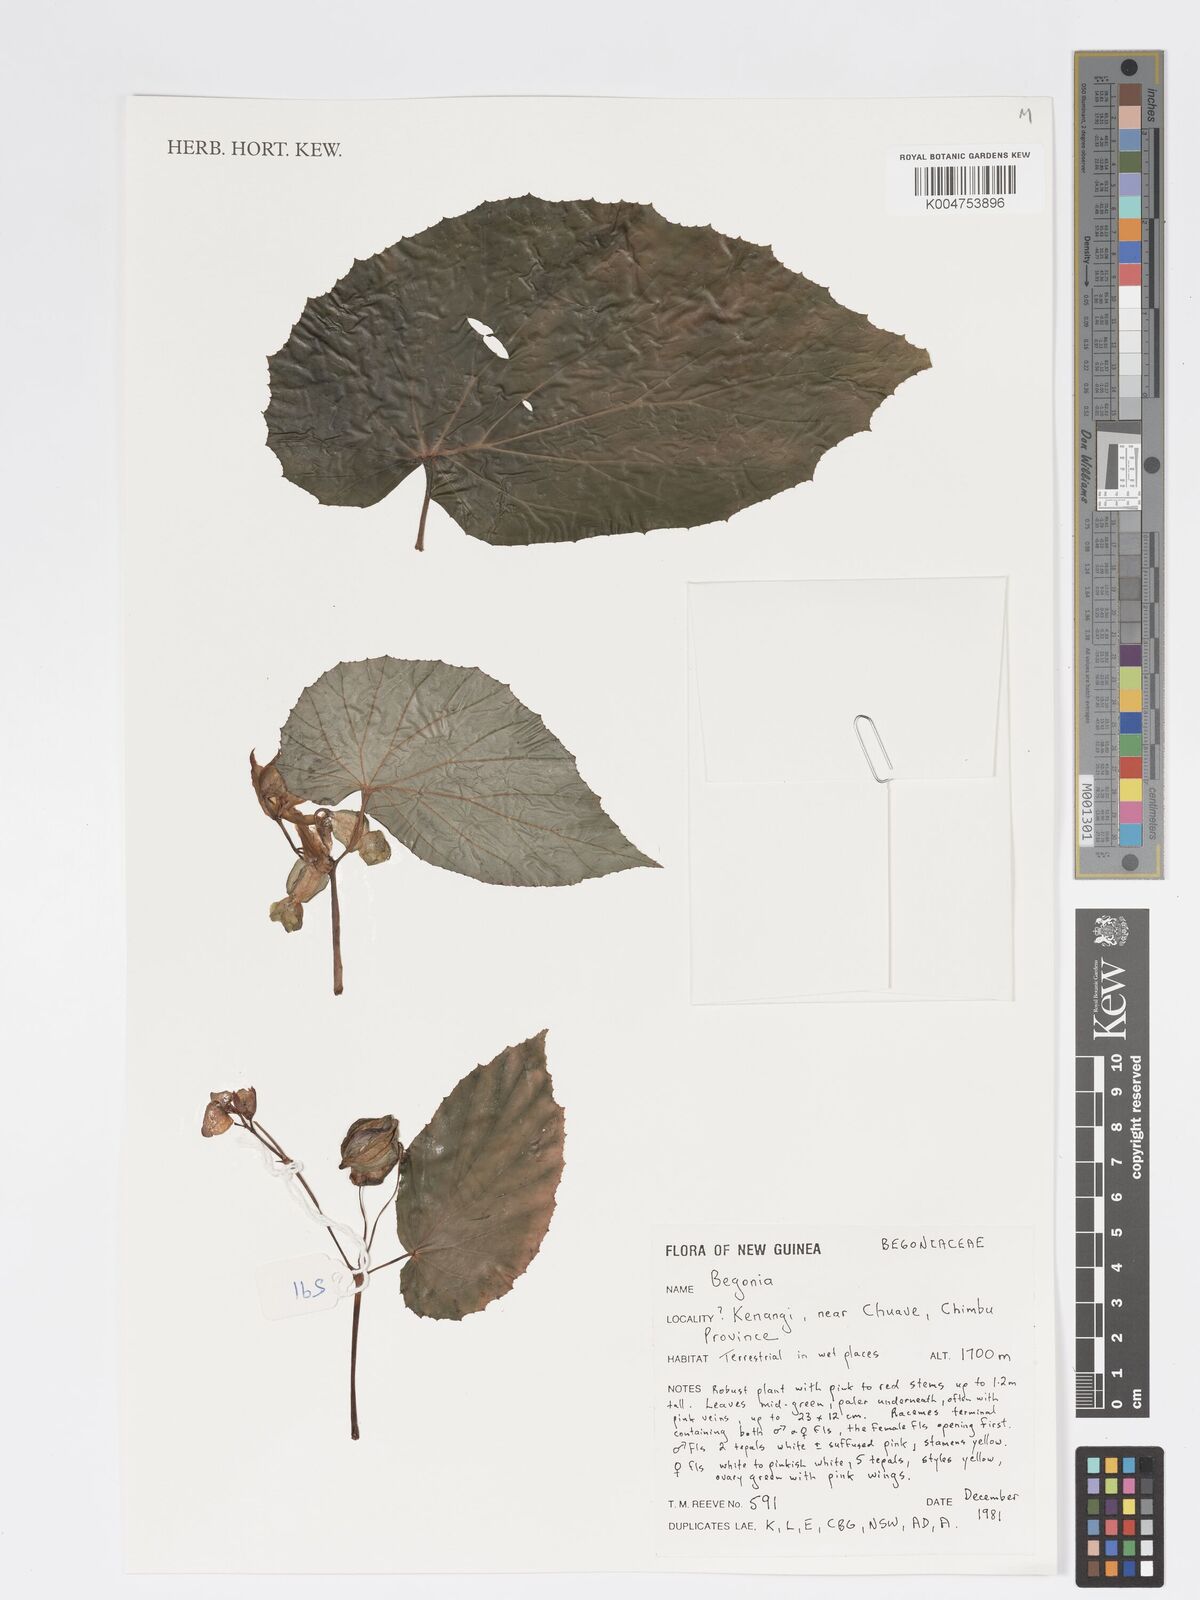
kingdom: Plantae
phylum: Tracheophyta
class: Magnoliopsida
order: Cucurbitales
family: Begoniaceae
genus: Begonia
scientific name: Begonia
